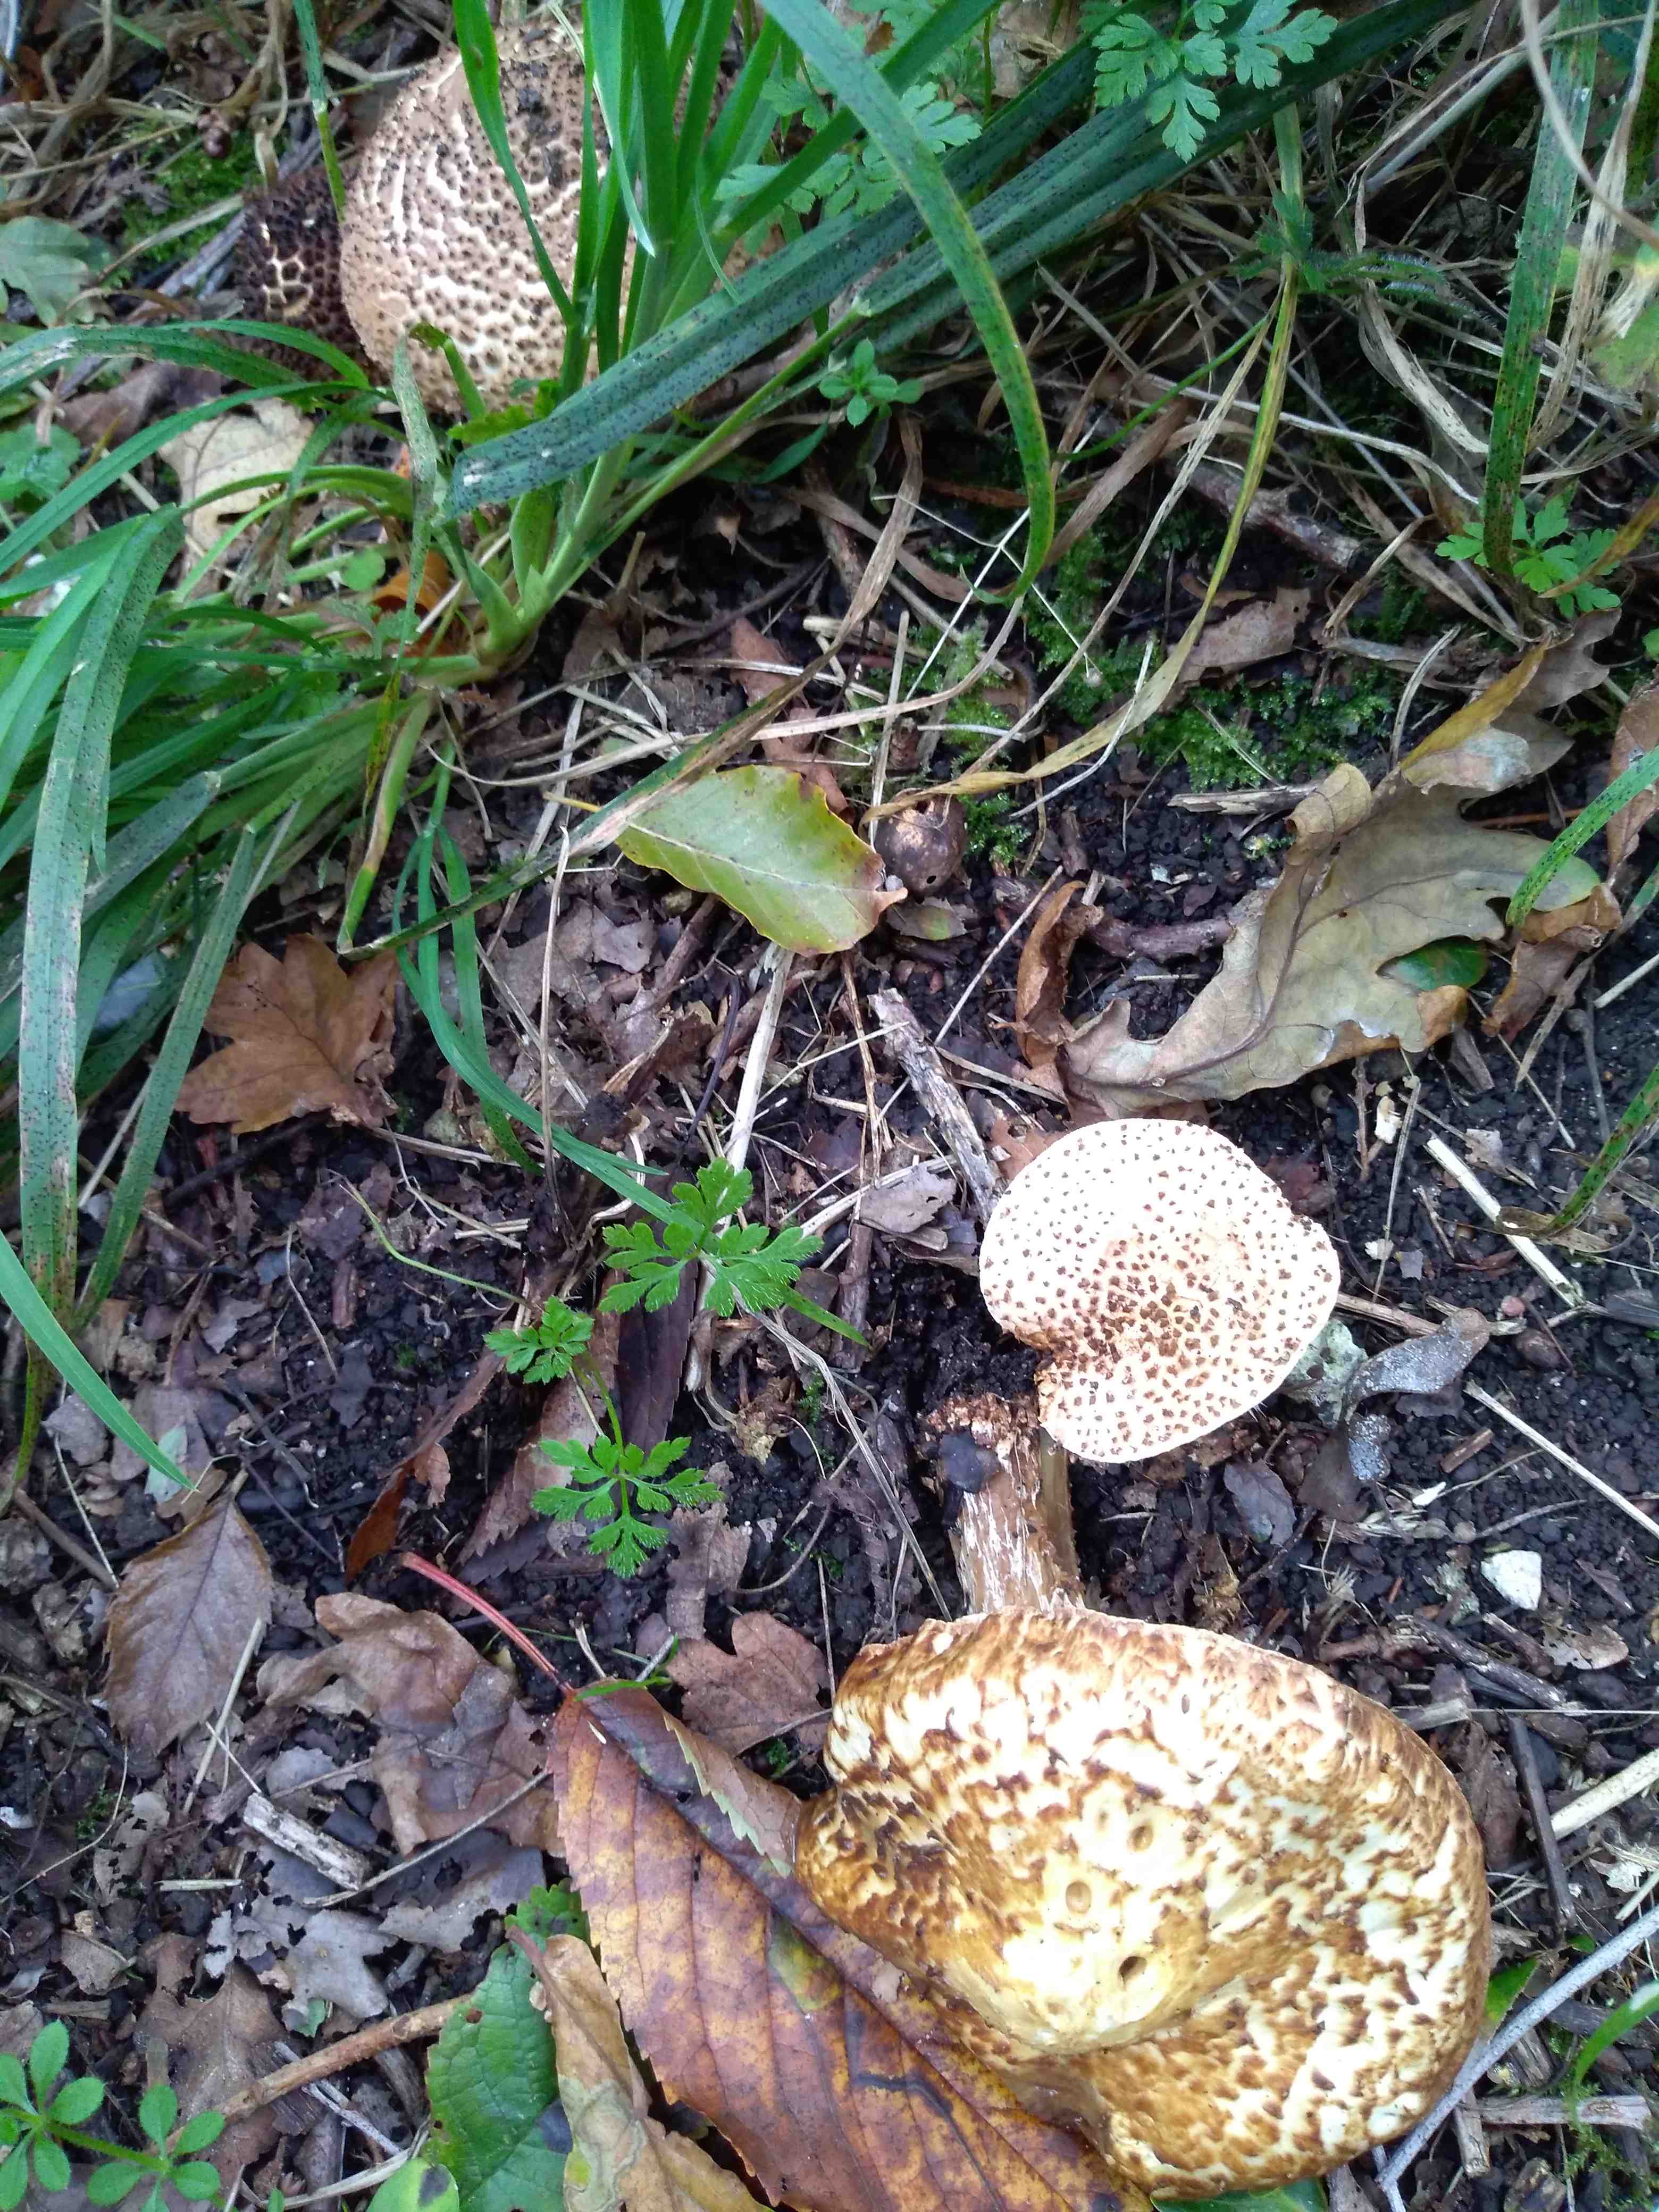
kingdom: Fungi
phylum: Basidiomycota
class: Agaricomycetes
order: Agaricales
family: Agaricaceae
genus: Echinoderma
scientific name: Echinoderma asperum
